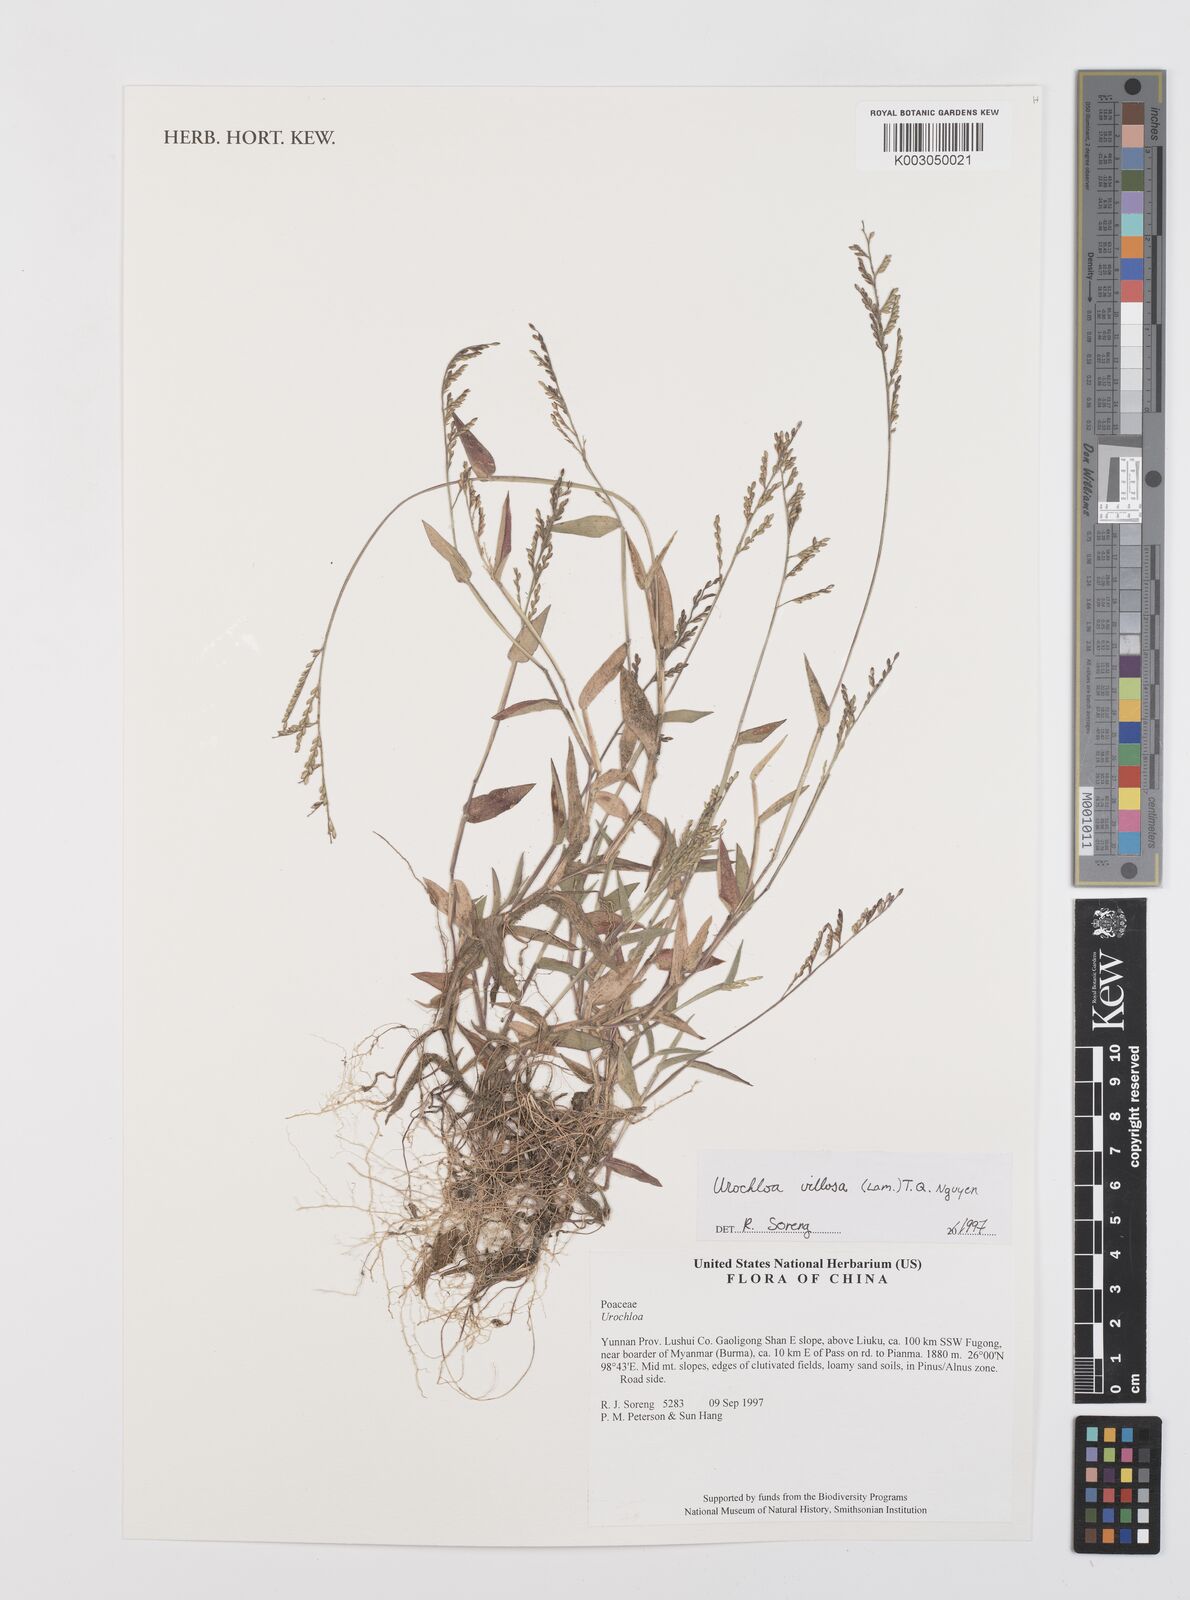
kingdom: Plantae
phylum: Tracheophyta
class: Liliopsida
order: Poales
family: Poaceae
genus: Urochloa
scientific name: Urochloa villosa
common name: Hairy signalgrass
